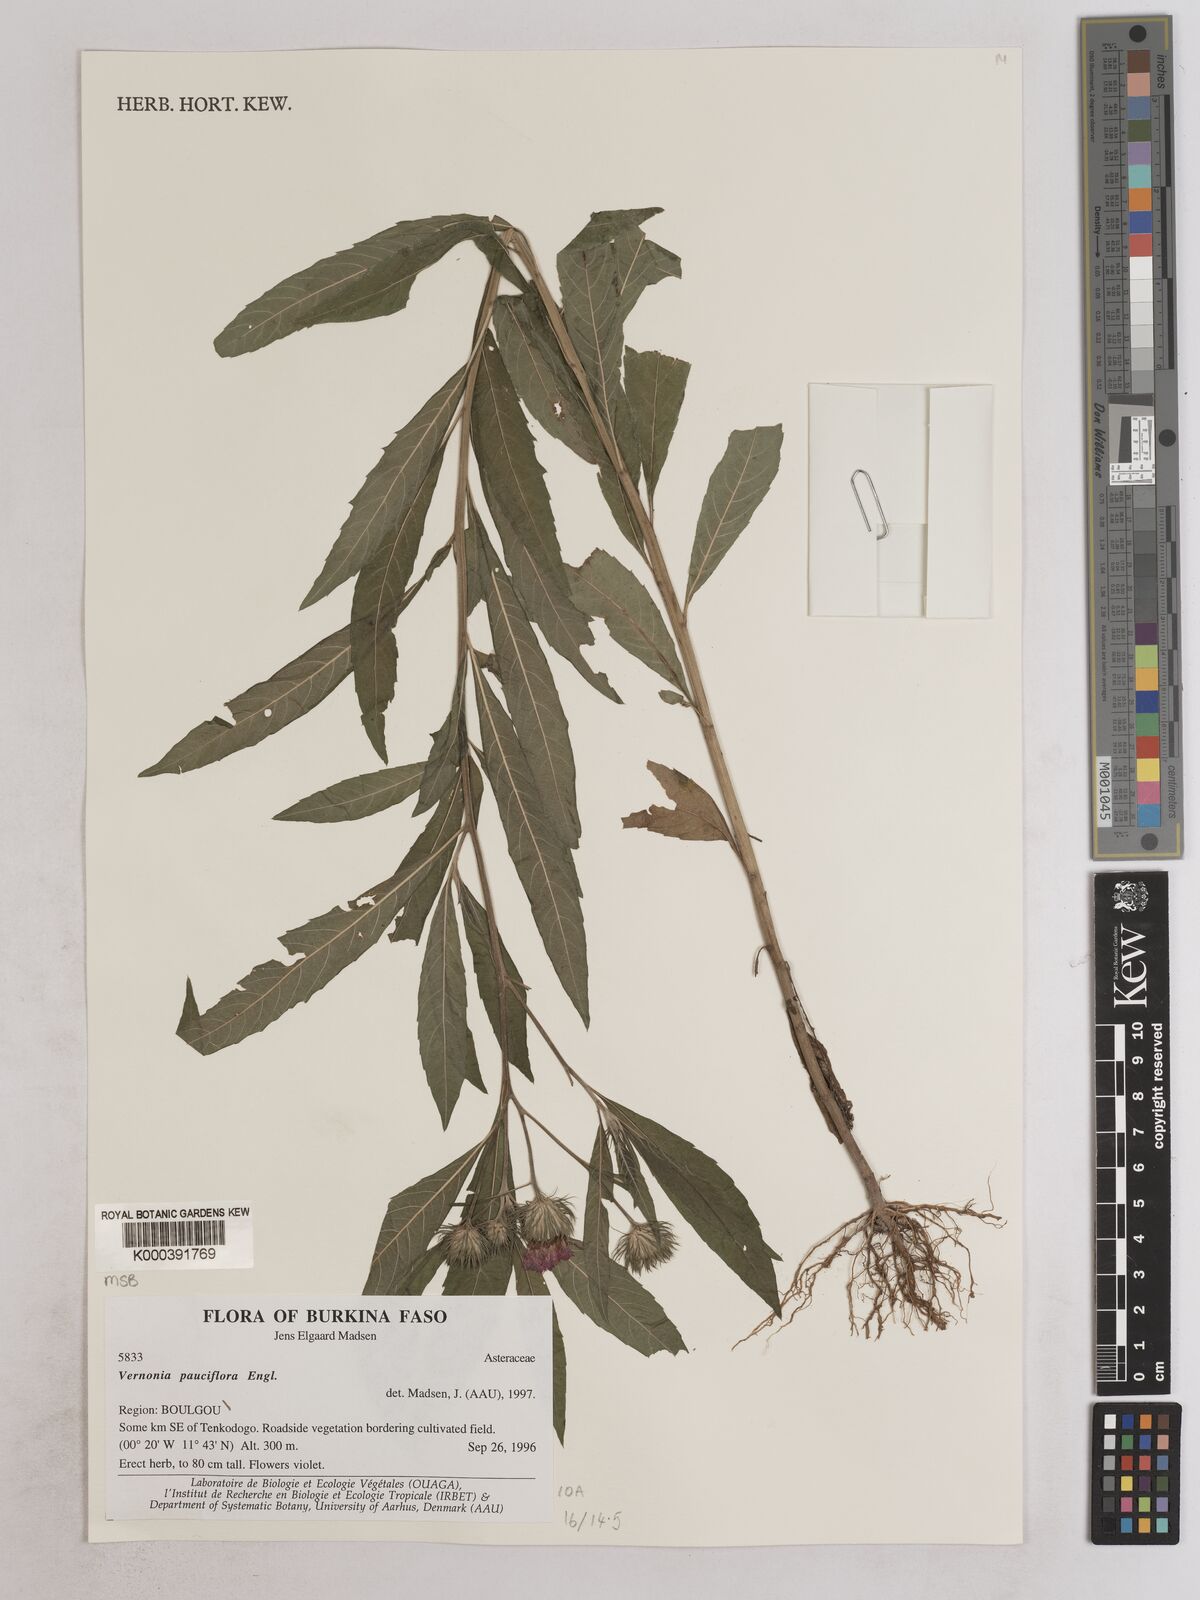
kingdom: Plantae
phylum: Tracheophyta
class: Magnoliopsida
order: Asterales
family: Asteraceae
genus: Vernonia
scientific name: Vernonia galamensis
